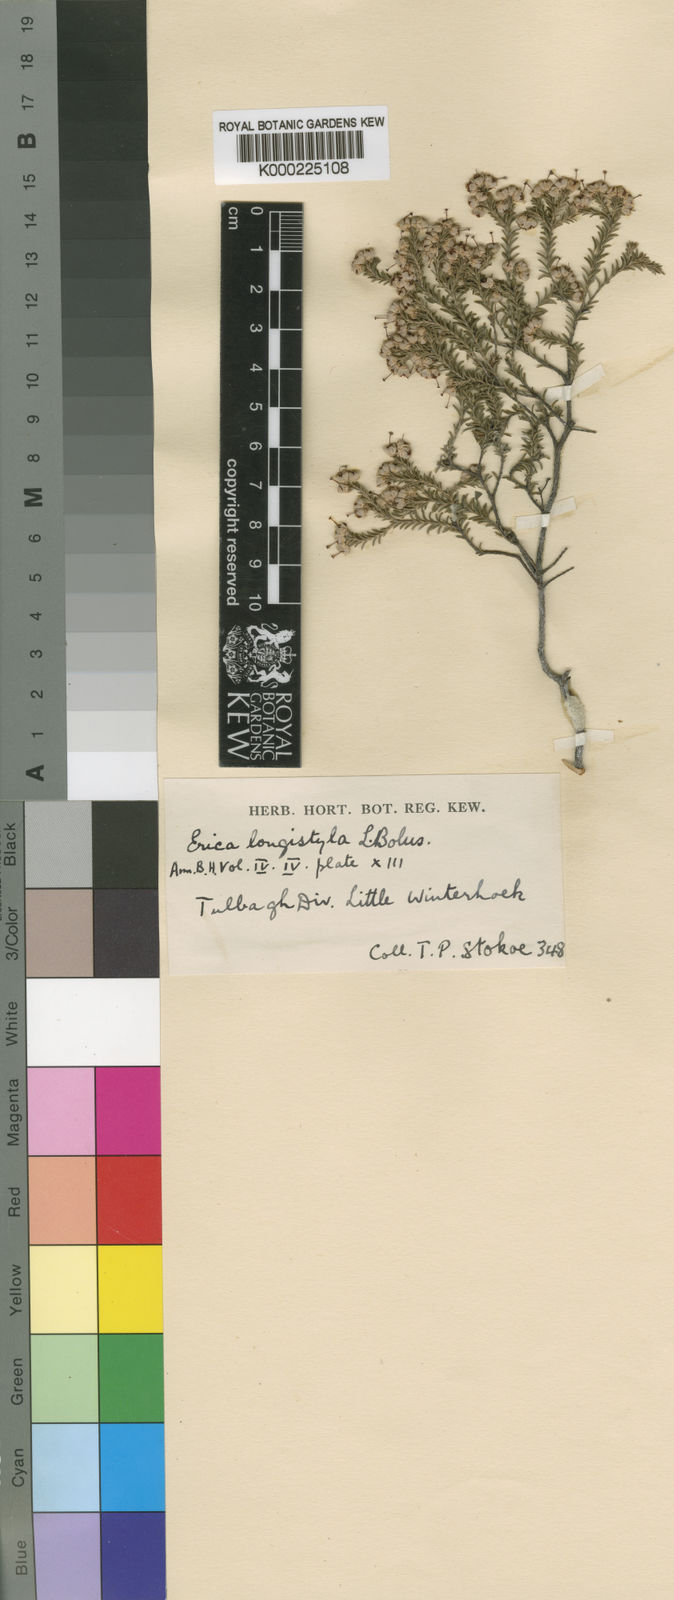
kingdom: Plantae
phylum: Tracheophyta
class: Magnoliopsida
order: Ericales
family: Ericaceae
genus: Erica
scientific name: Erica longistyla
